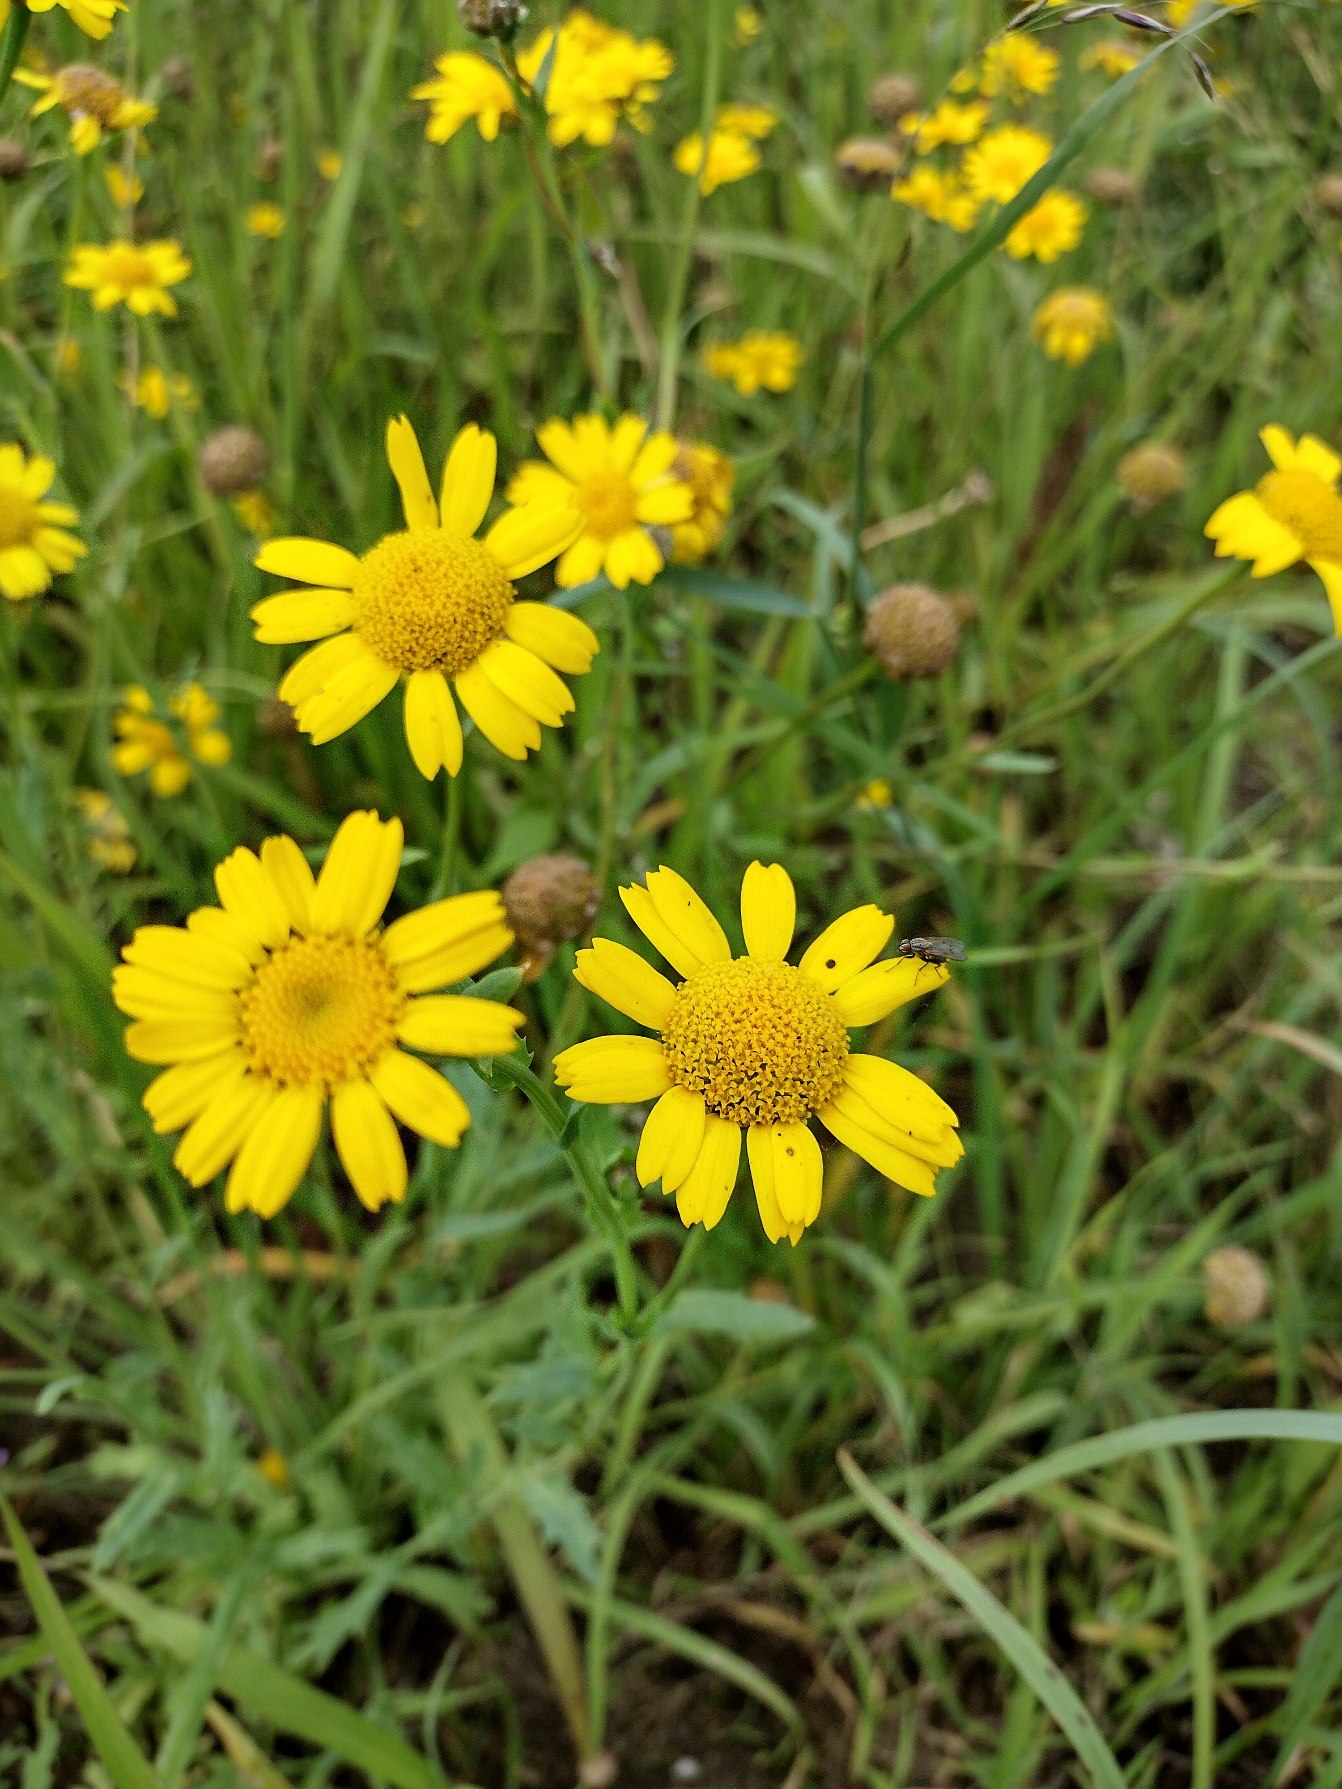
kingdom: Plantae
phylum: Tracheophyta
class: Magnoliopsida
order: Asterales
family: Asteraceae
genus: Glebionis
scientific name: Glebionis segetum
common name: Gul okseøje
